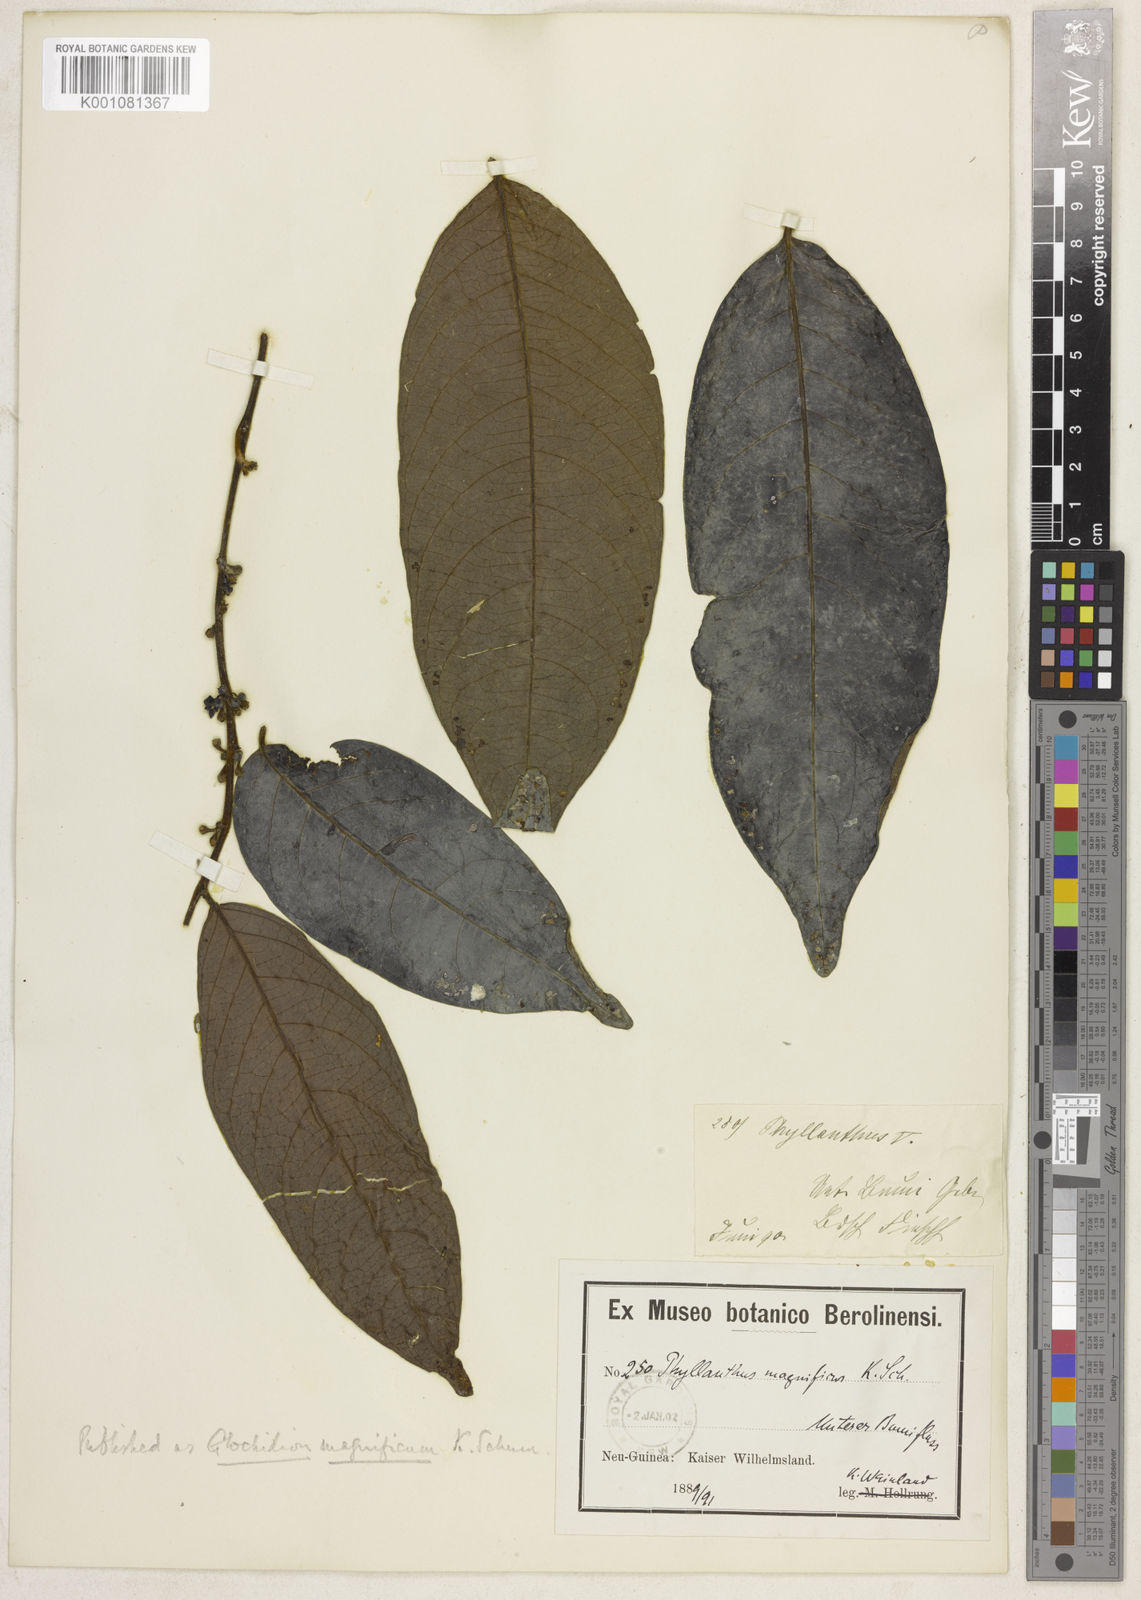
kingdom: Plantae
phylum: Tracheophyta
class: Magnoliopsida
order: Malpighiales
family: Phyllanthaceae
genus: Glochidion
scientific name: Glochidion submolle
